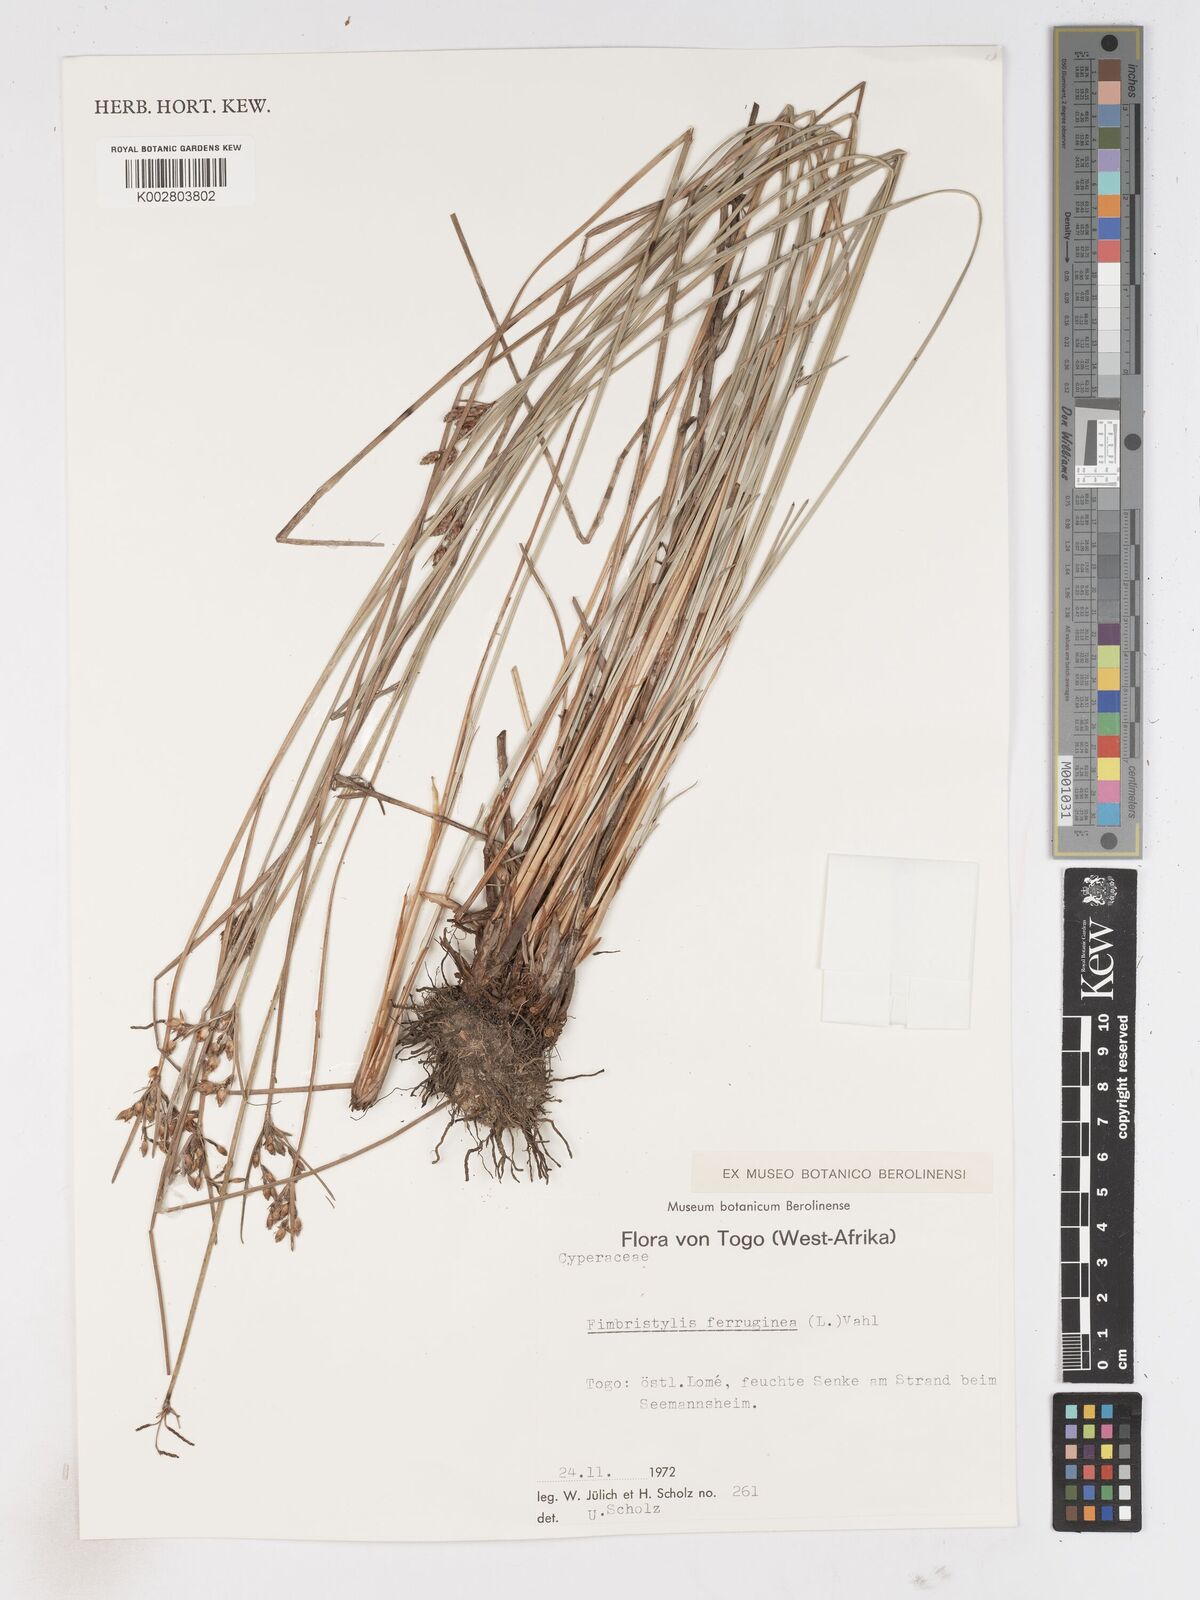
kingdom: Plantae
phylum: Tracheophyta
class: Liliopsida
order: Poales
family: Cyperaceae
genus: Fimbristylis
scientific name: Fimbristylis ferruginea
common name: West indian fimbry
